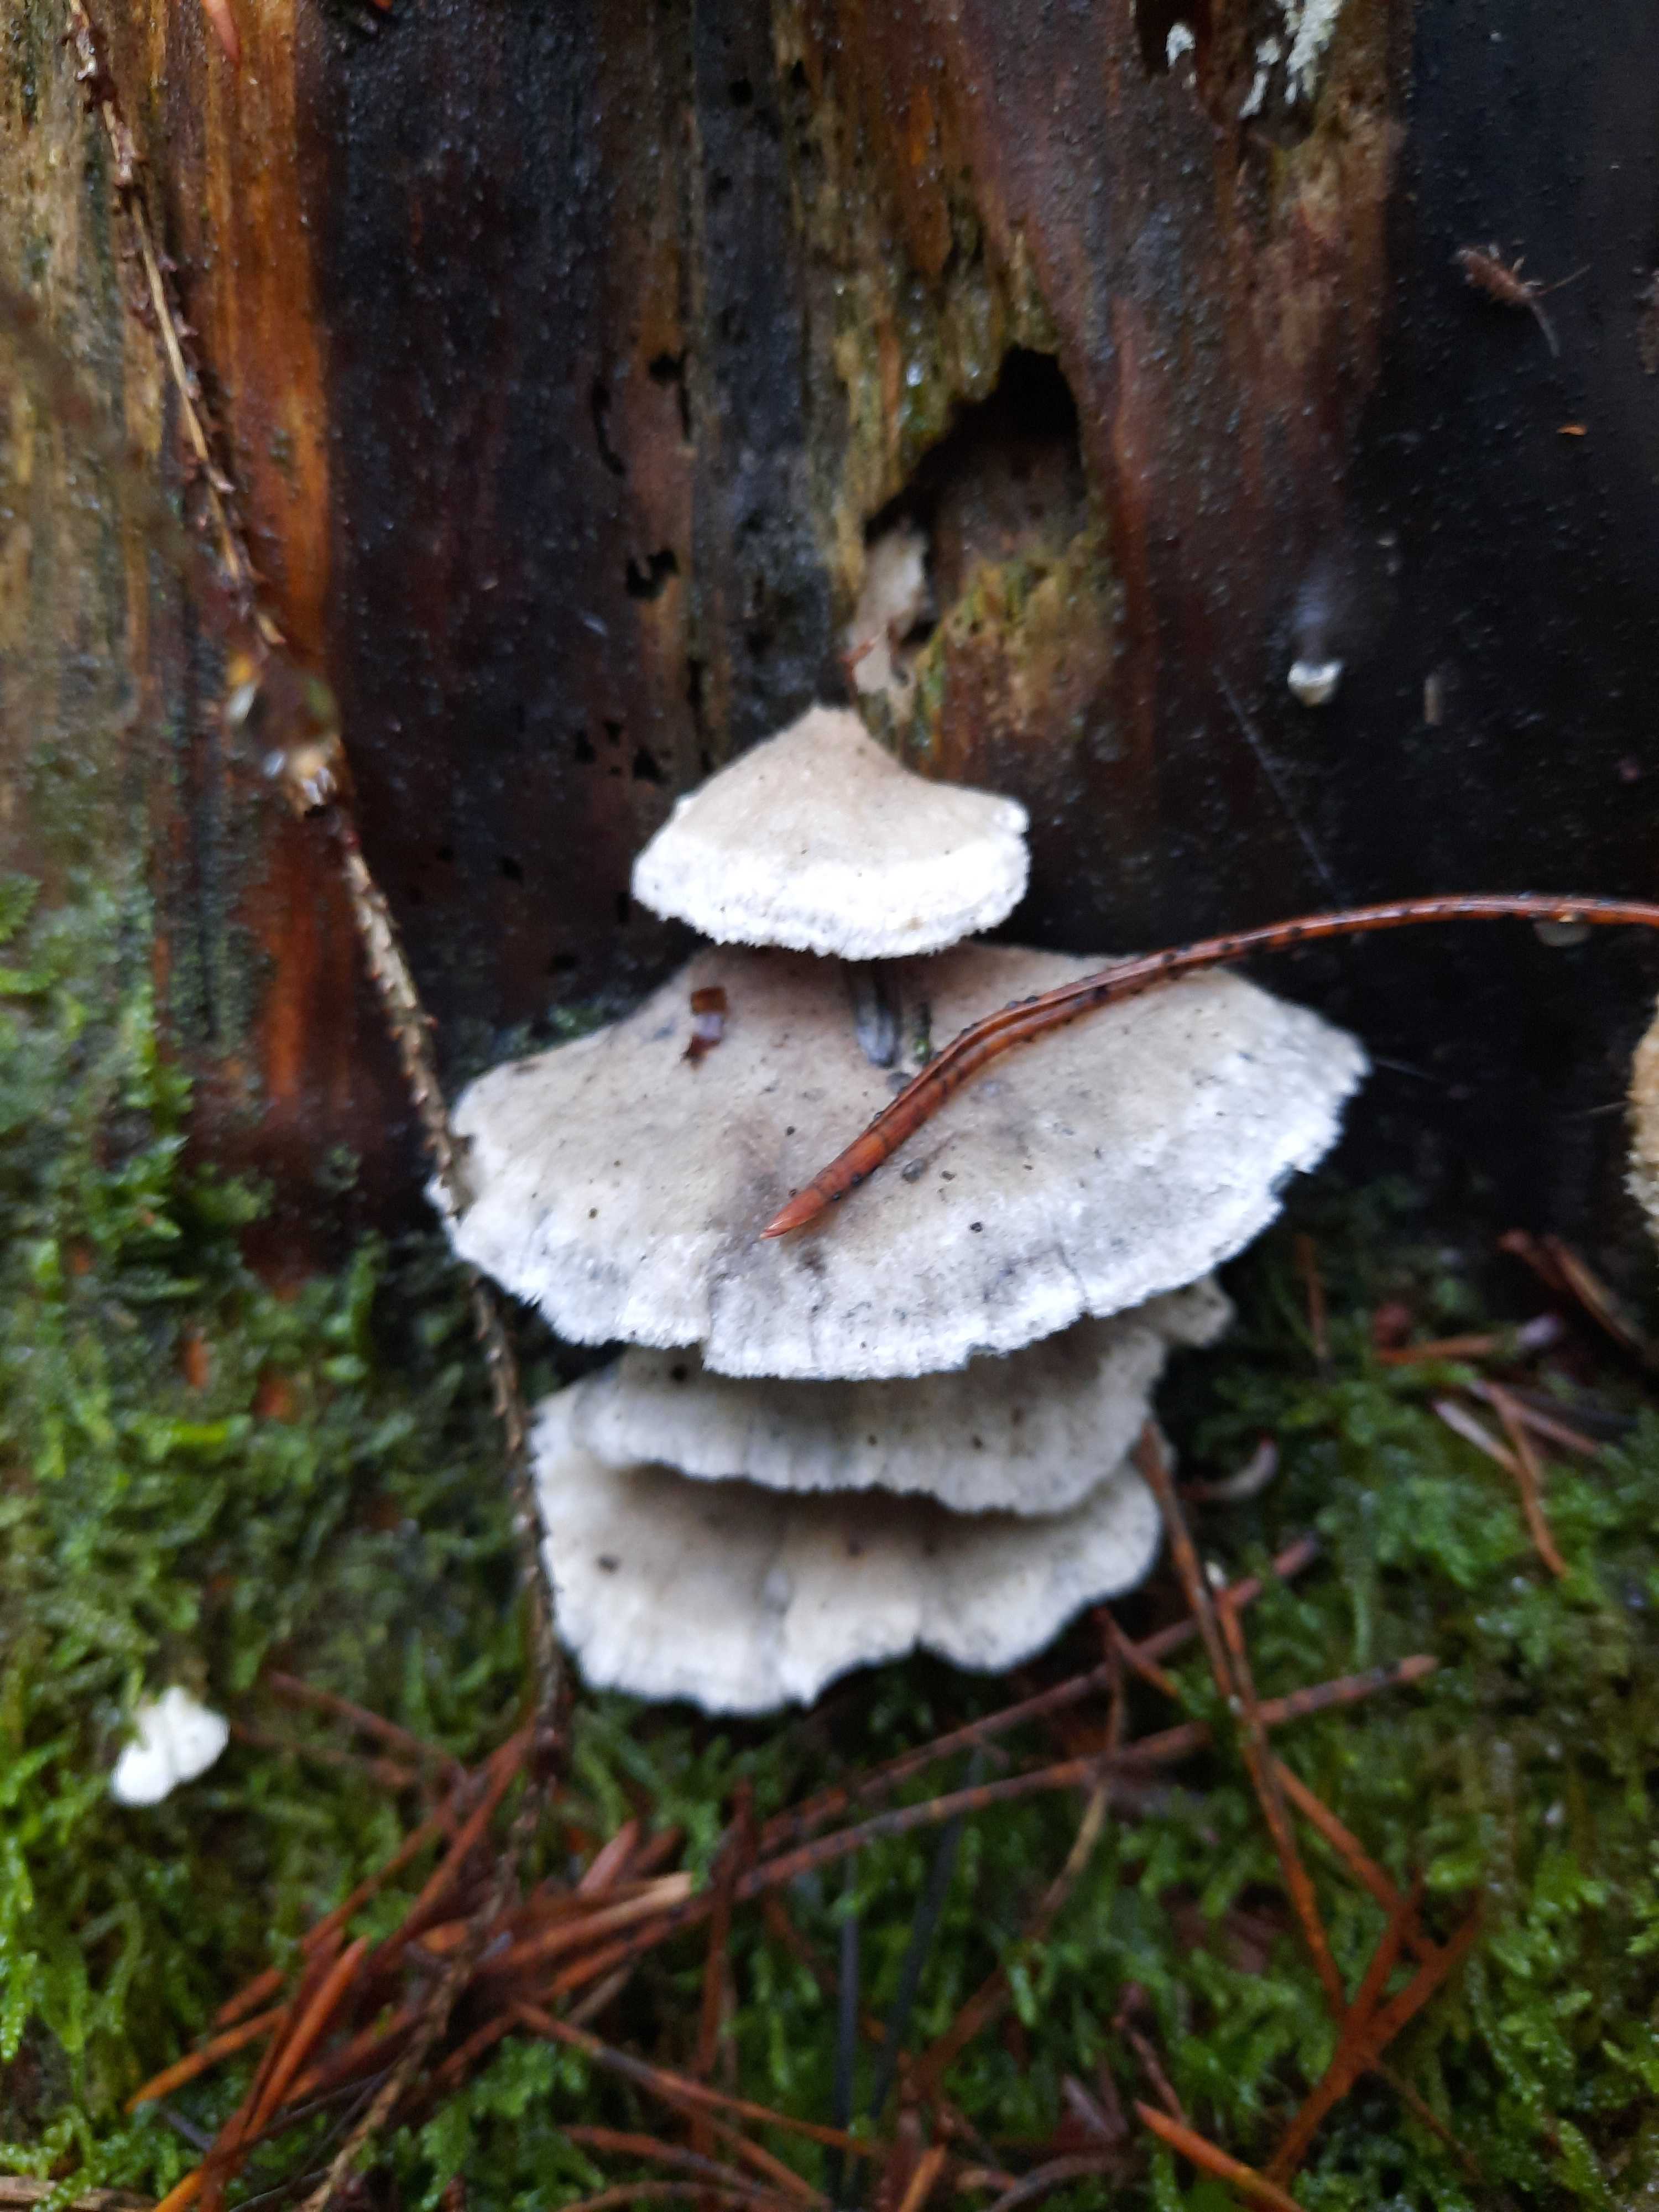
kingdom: Fungi
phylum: Basidiomycota
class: Agaricomycetes
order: Polyporales
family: Polyporaceae
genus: Cyanosporus
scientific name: Cyanosporus caesius
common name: blålig kødporesvamp
